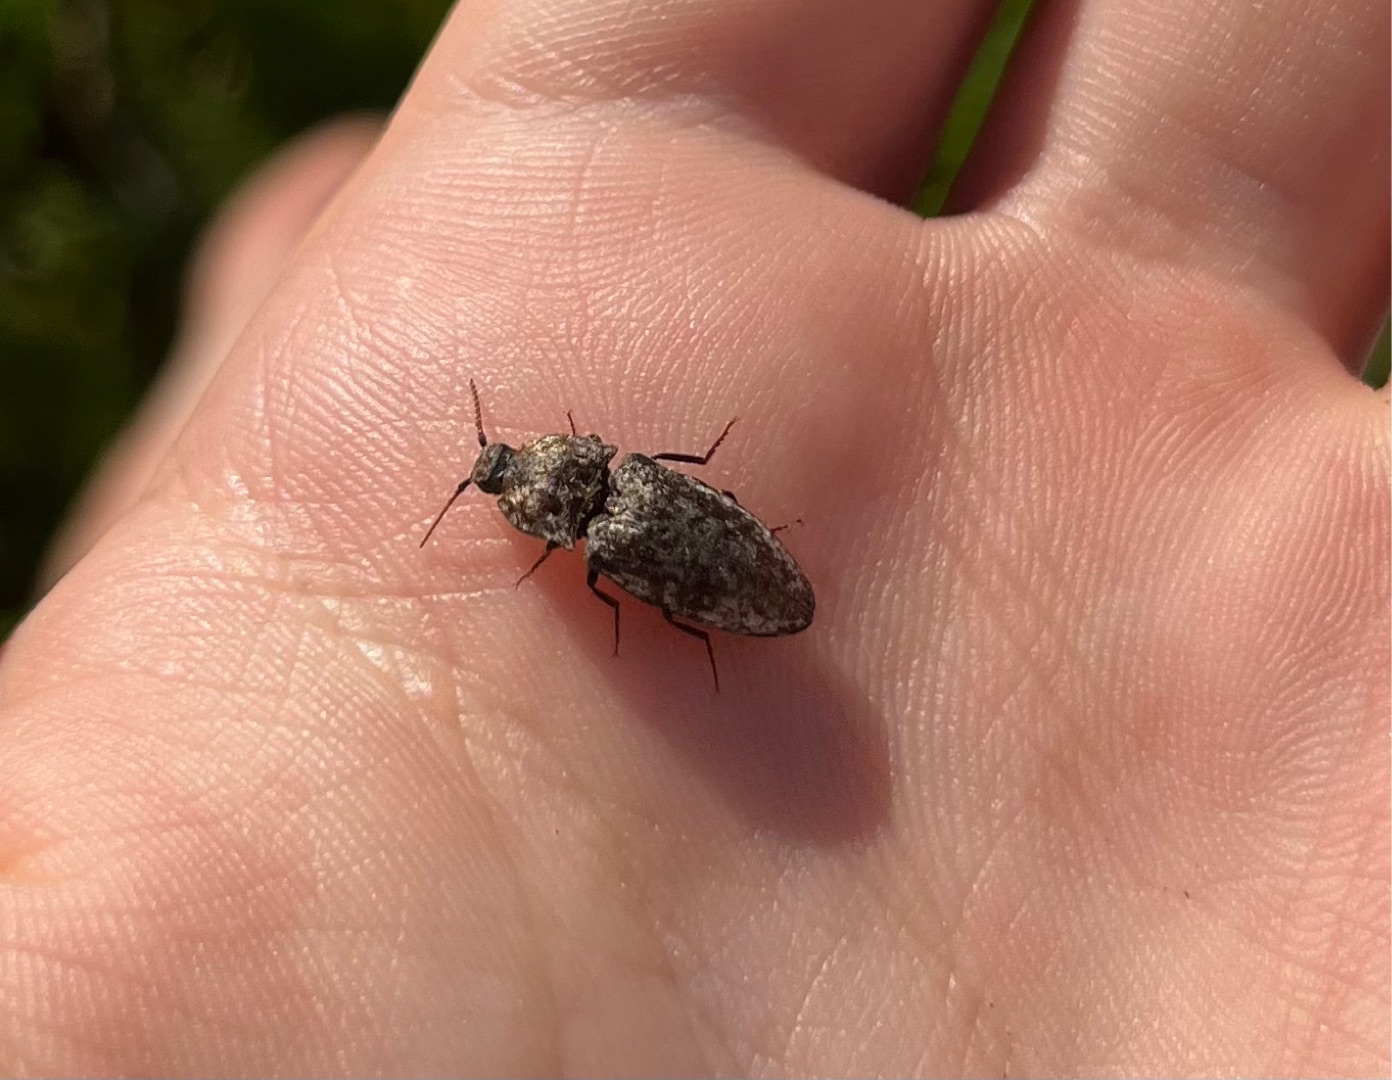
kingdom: Animalia
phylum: Arthropoda
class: Insecta
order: Coleoptera
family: Elateridae
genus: Agrypnus
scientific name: Agrypnus murinus
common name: Musegrå smælder
